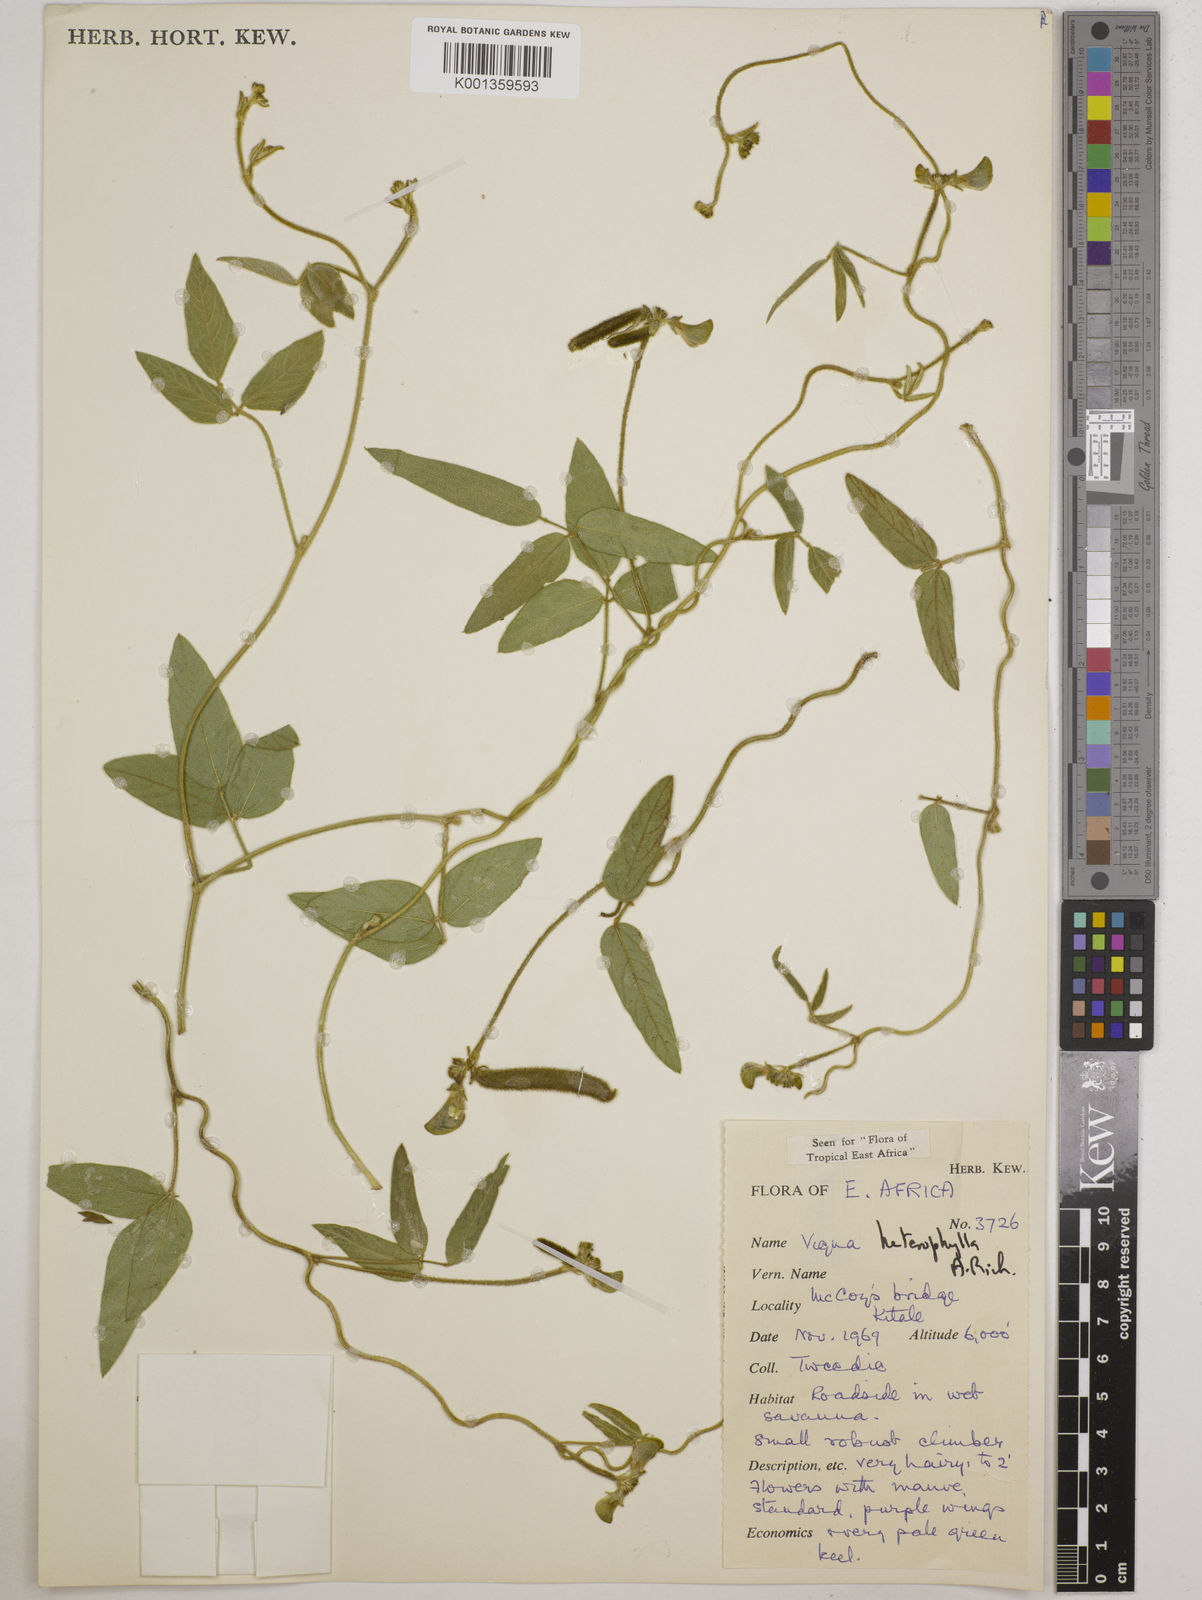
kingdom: Plantae
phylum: Tracheophyta
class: Magnoliopsida
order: Fabales
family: Fabaceae
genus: Vigna
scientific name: Vigna heterophylla
